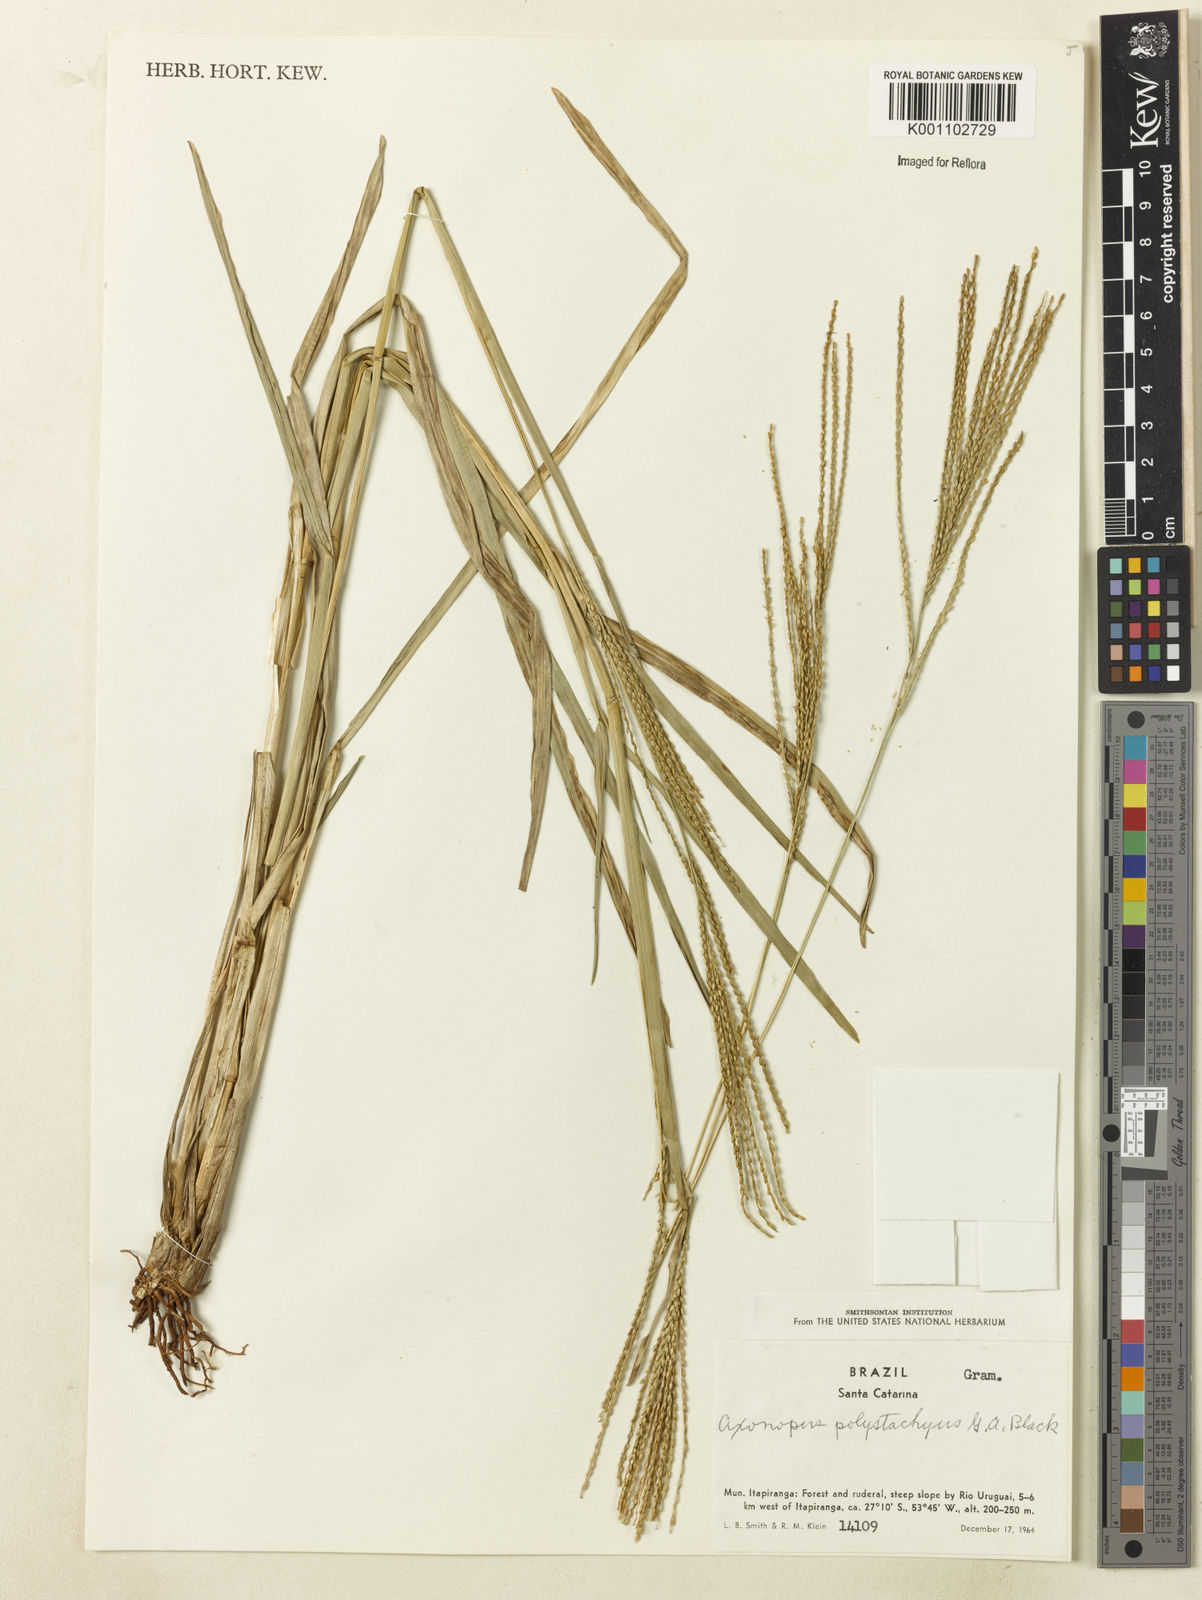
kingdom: Plantae
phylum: Tracheophyta
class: Liliopsida
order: Poales
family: Poaceae
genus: Axonopus
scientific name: Axonopus polystachyus
